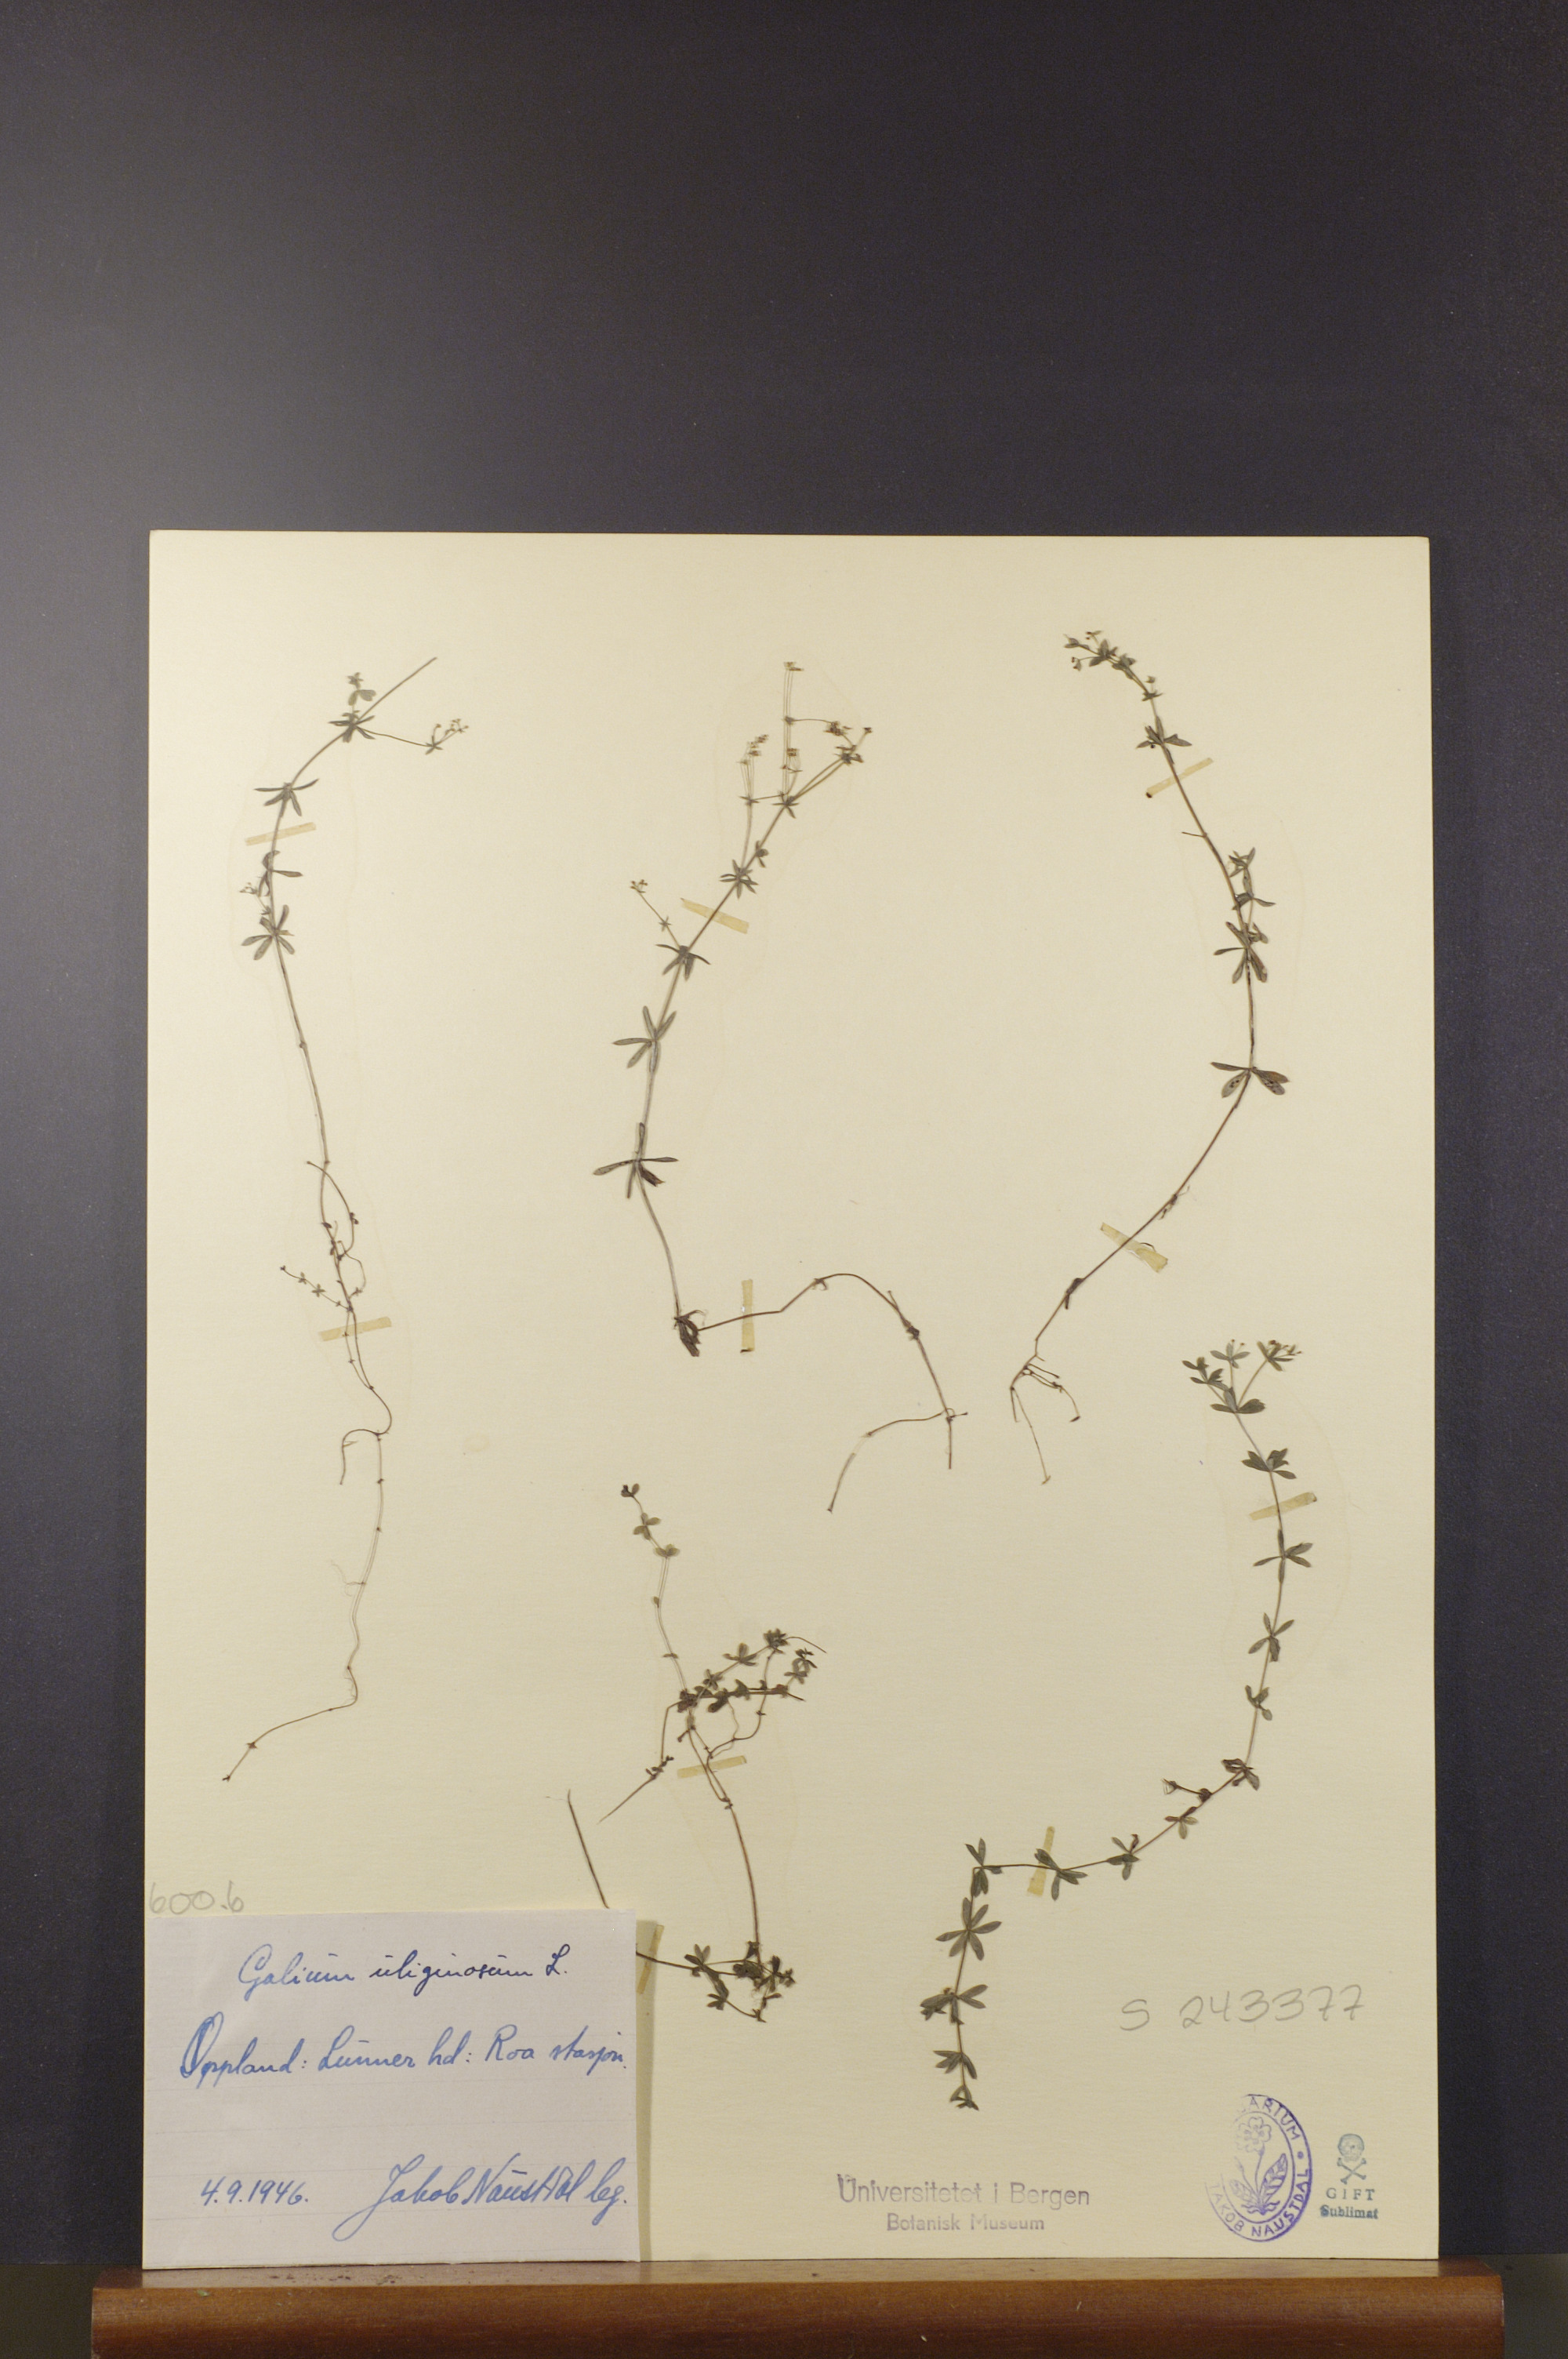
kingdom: Plantae
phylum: Tracheophyta
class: Magnoliopsida
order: Gentianales
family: Rubiaceae
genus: Galium
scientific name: Galium uliginosum
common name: Fen bedstraw
